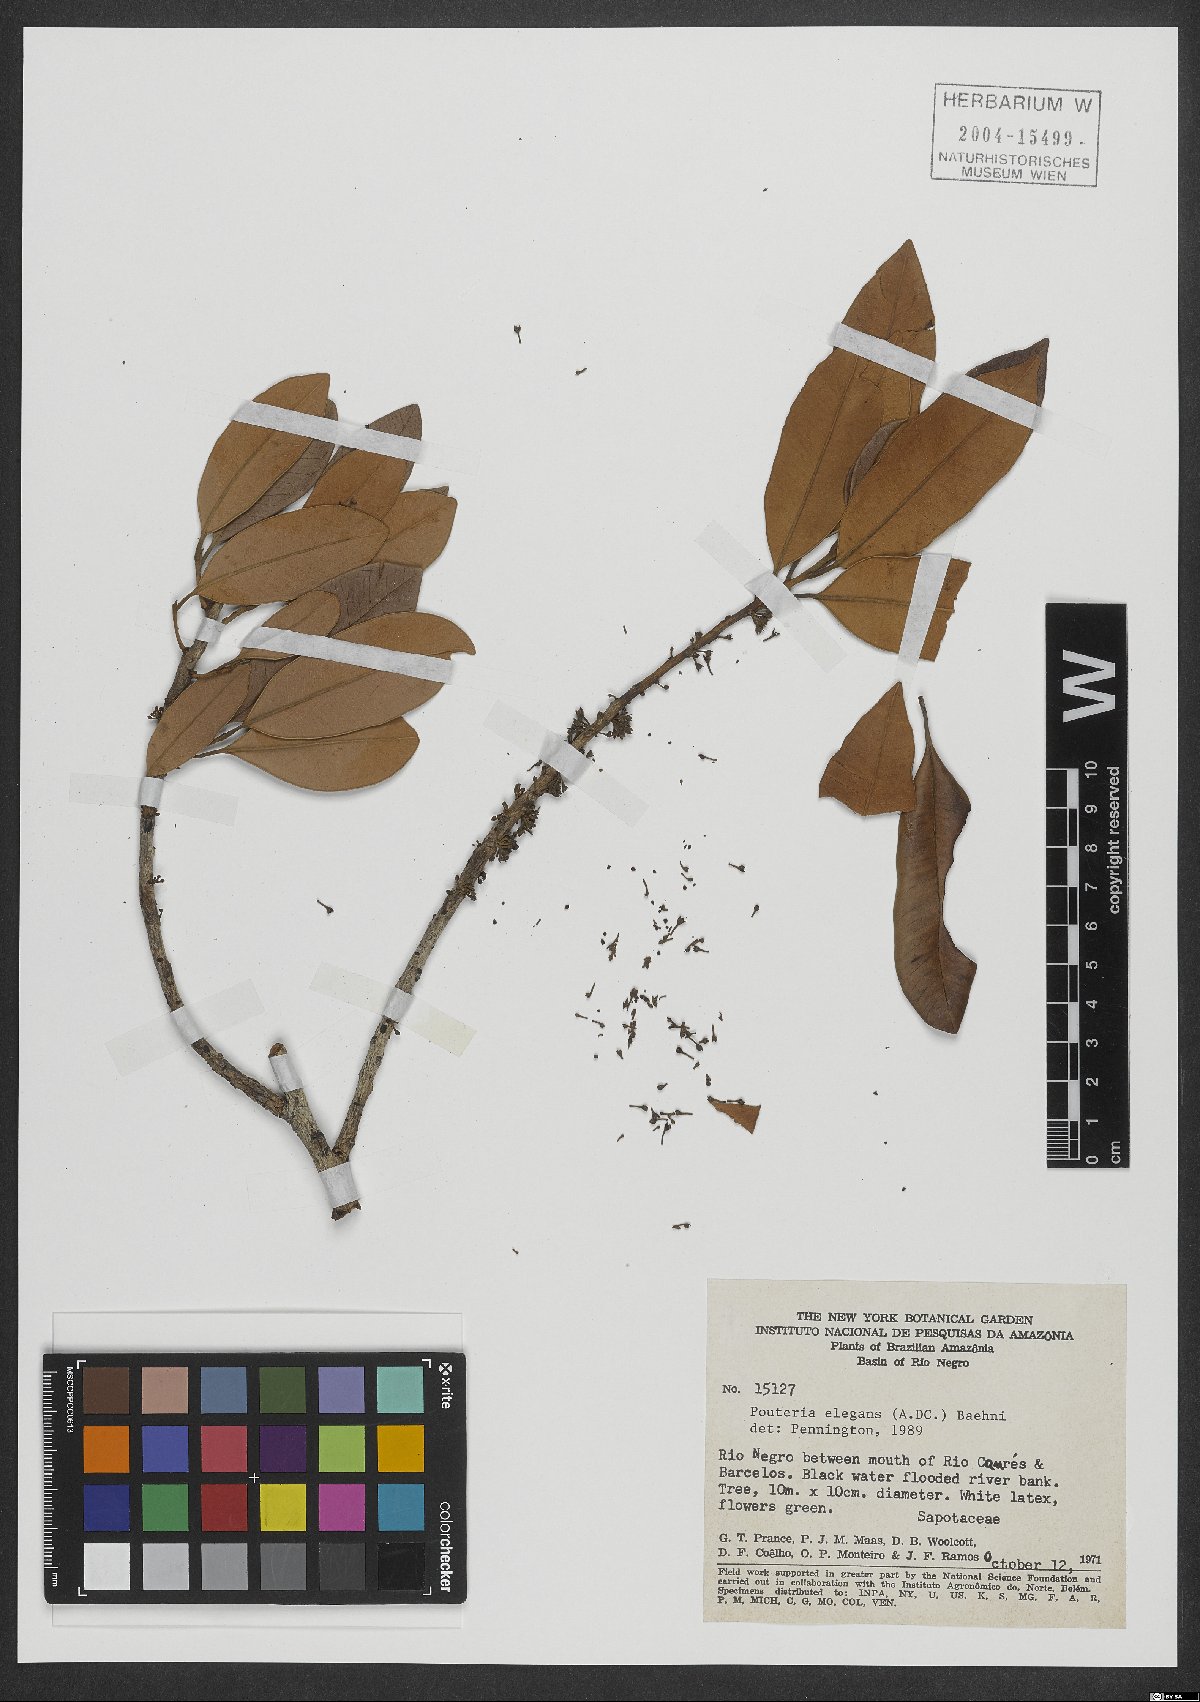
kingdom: Plantae
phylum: Tracheophyta
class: Magnoliopsida
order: Ericales
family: Sapotaceae
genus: Pouteria
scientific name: Pouteria elegans
